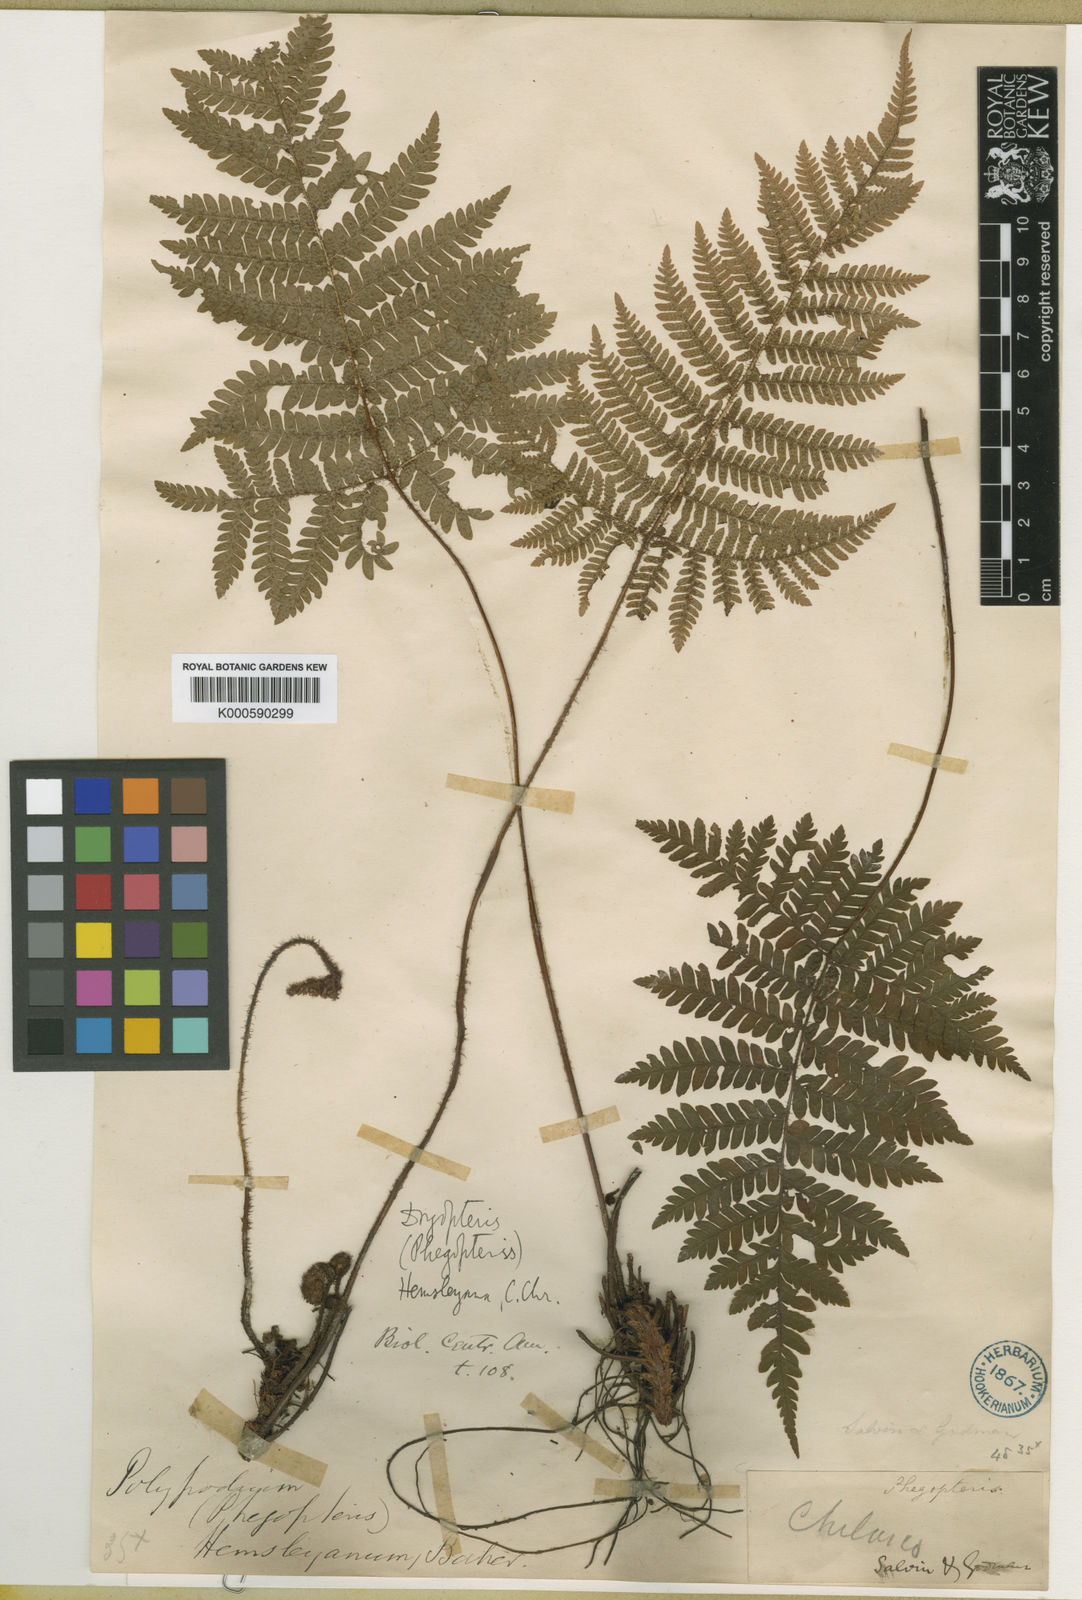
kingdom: Plantae
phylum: Tracheophyta
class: Polypodiopsida
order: Polypodiales
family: Dryopteridaceae
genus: Ctenitis
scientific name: Ctenitis hemsleyana
